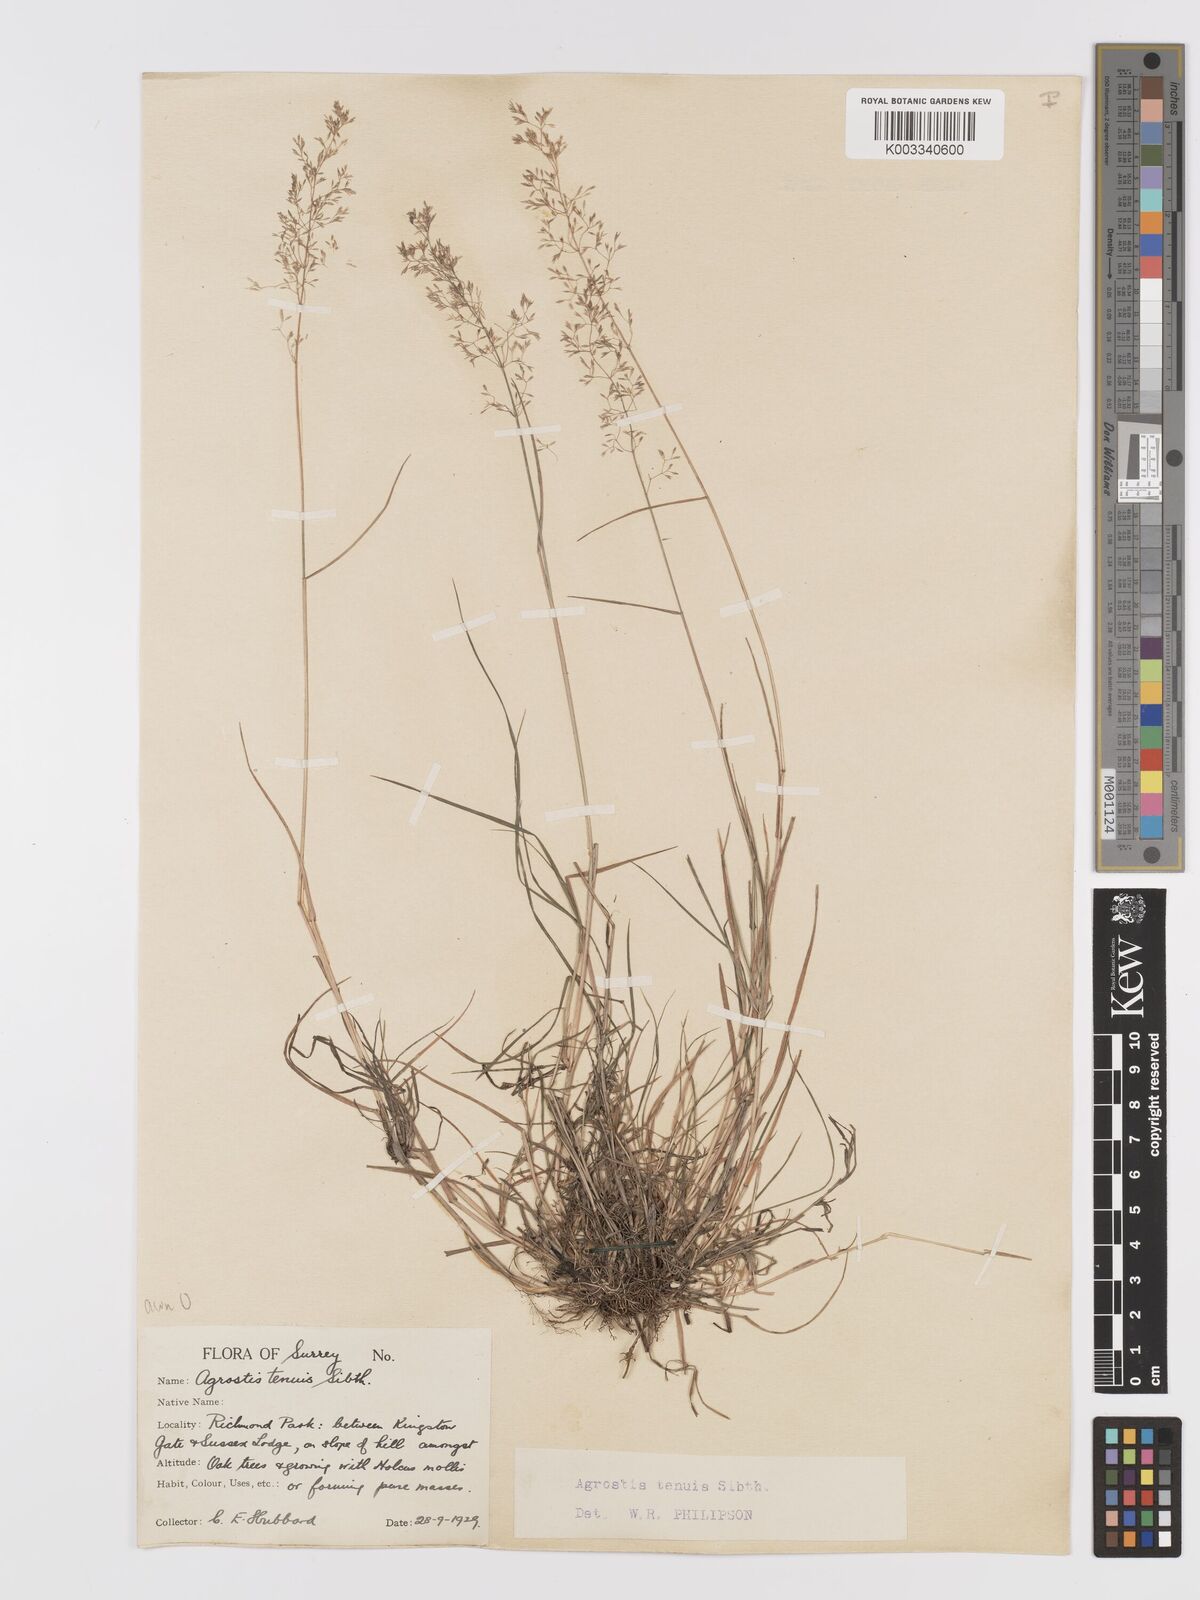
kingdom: Plantae
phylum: Tracheophyta
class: Liliopsida
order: Poales
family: Poaceae
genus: Agrostis
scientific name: Agrostis capillaris
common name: Colonial bentgrass
